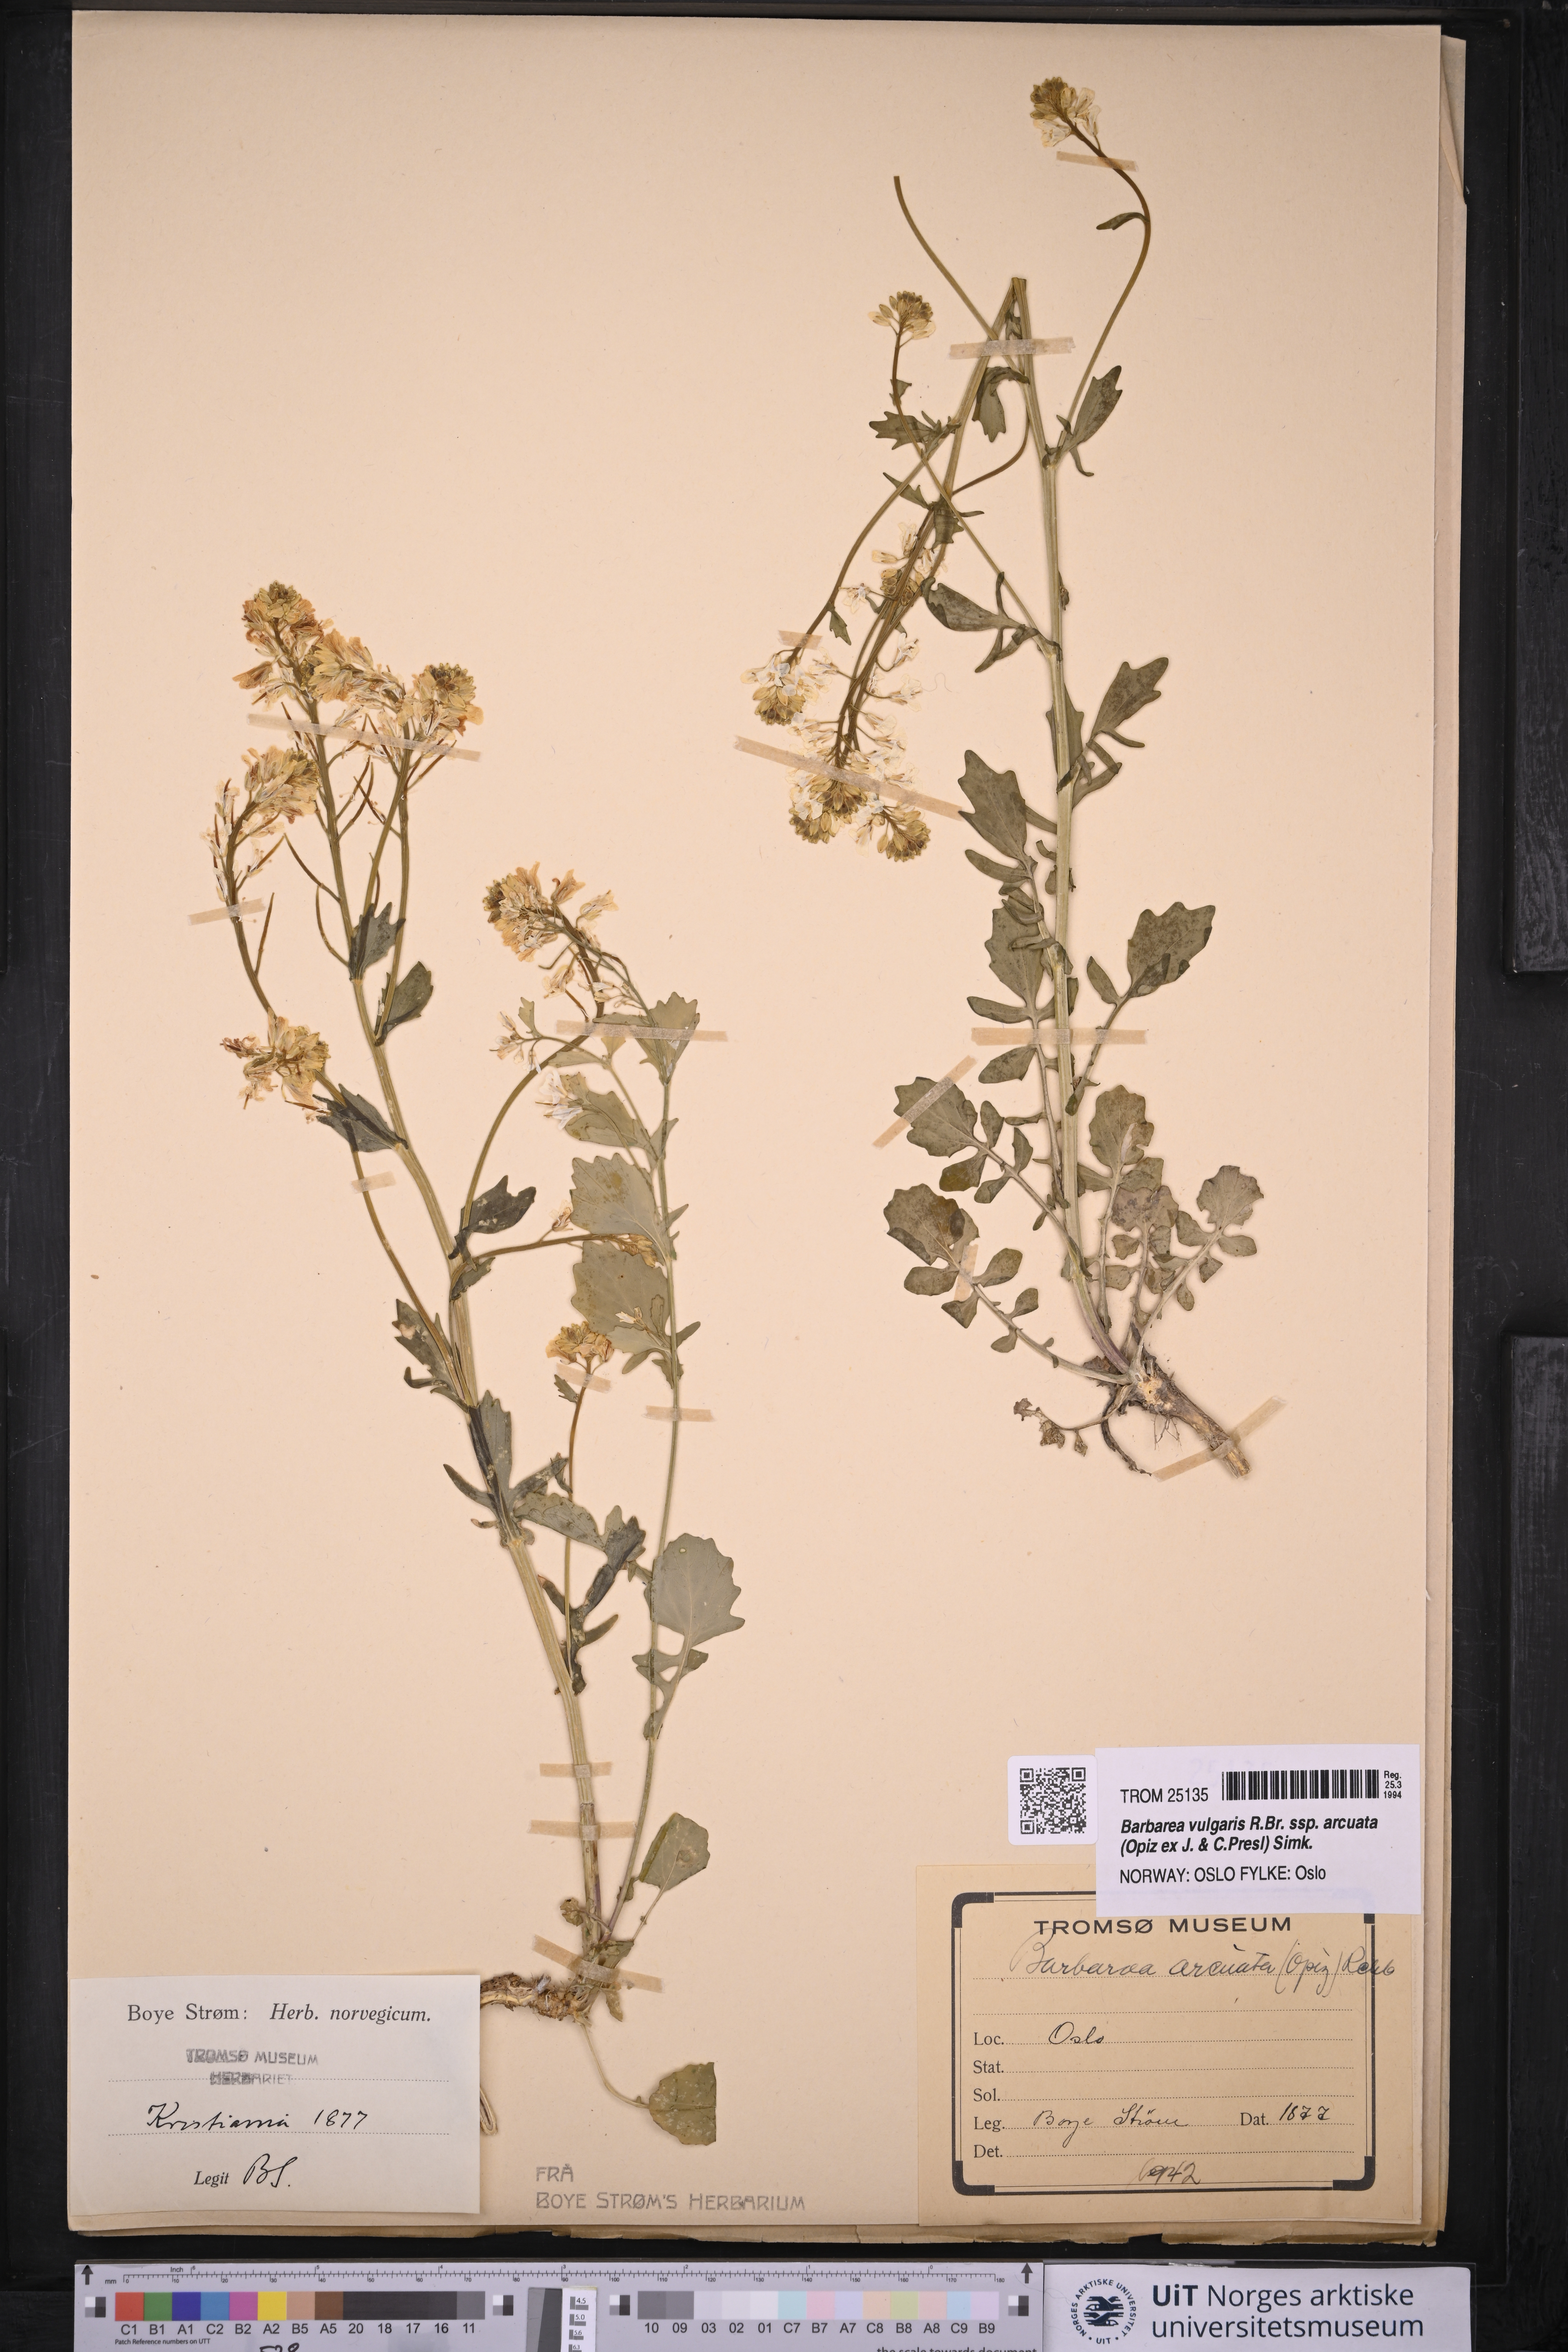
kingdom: Plantae
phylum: Tracheophyta
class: Magnoliopsida
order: Brassicales
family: Brassicaceae
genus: Barbarea
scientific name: Barbarea vulgaris
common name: Cressy-greens
